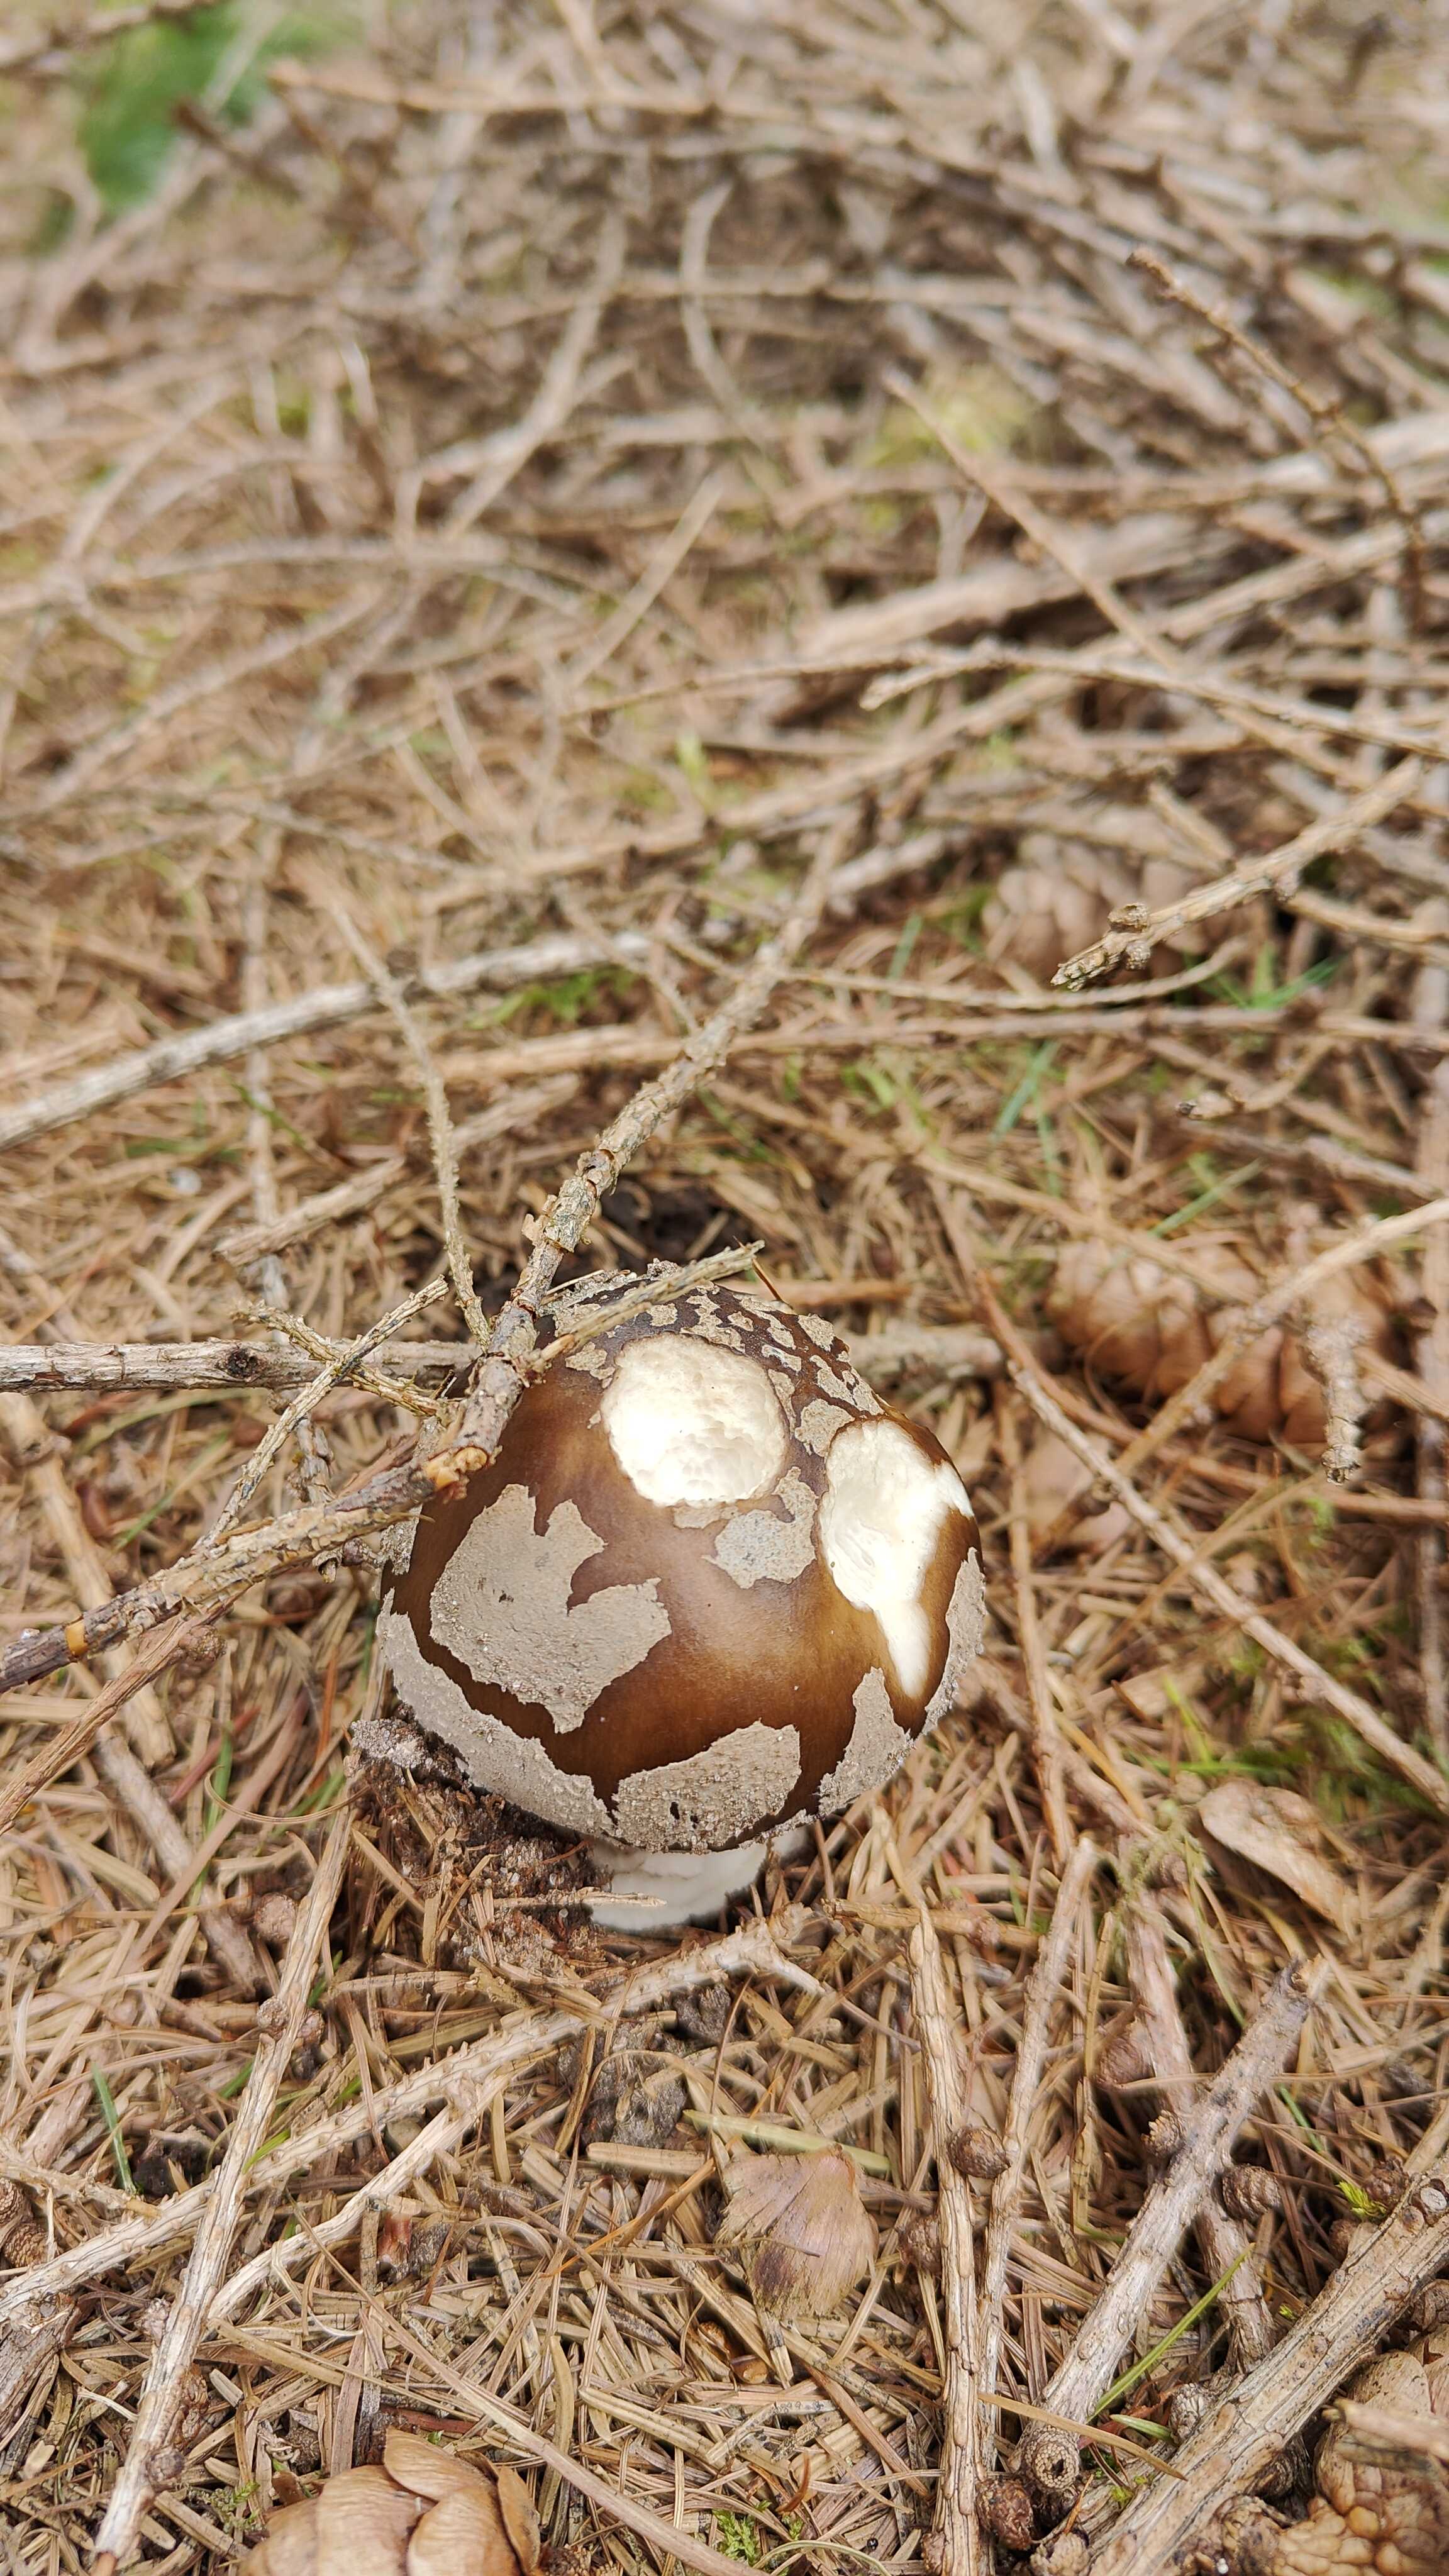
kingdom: Fungi
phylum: Basidiomycota
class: Agaricomycetes
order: Agaricales
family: Amanitaceae
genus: Amanita
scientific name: Amanita
